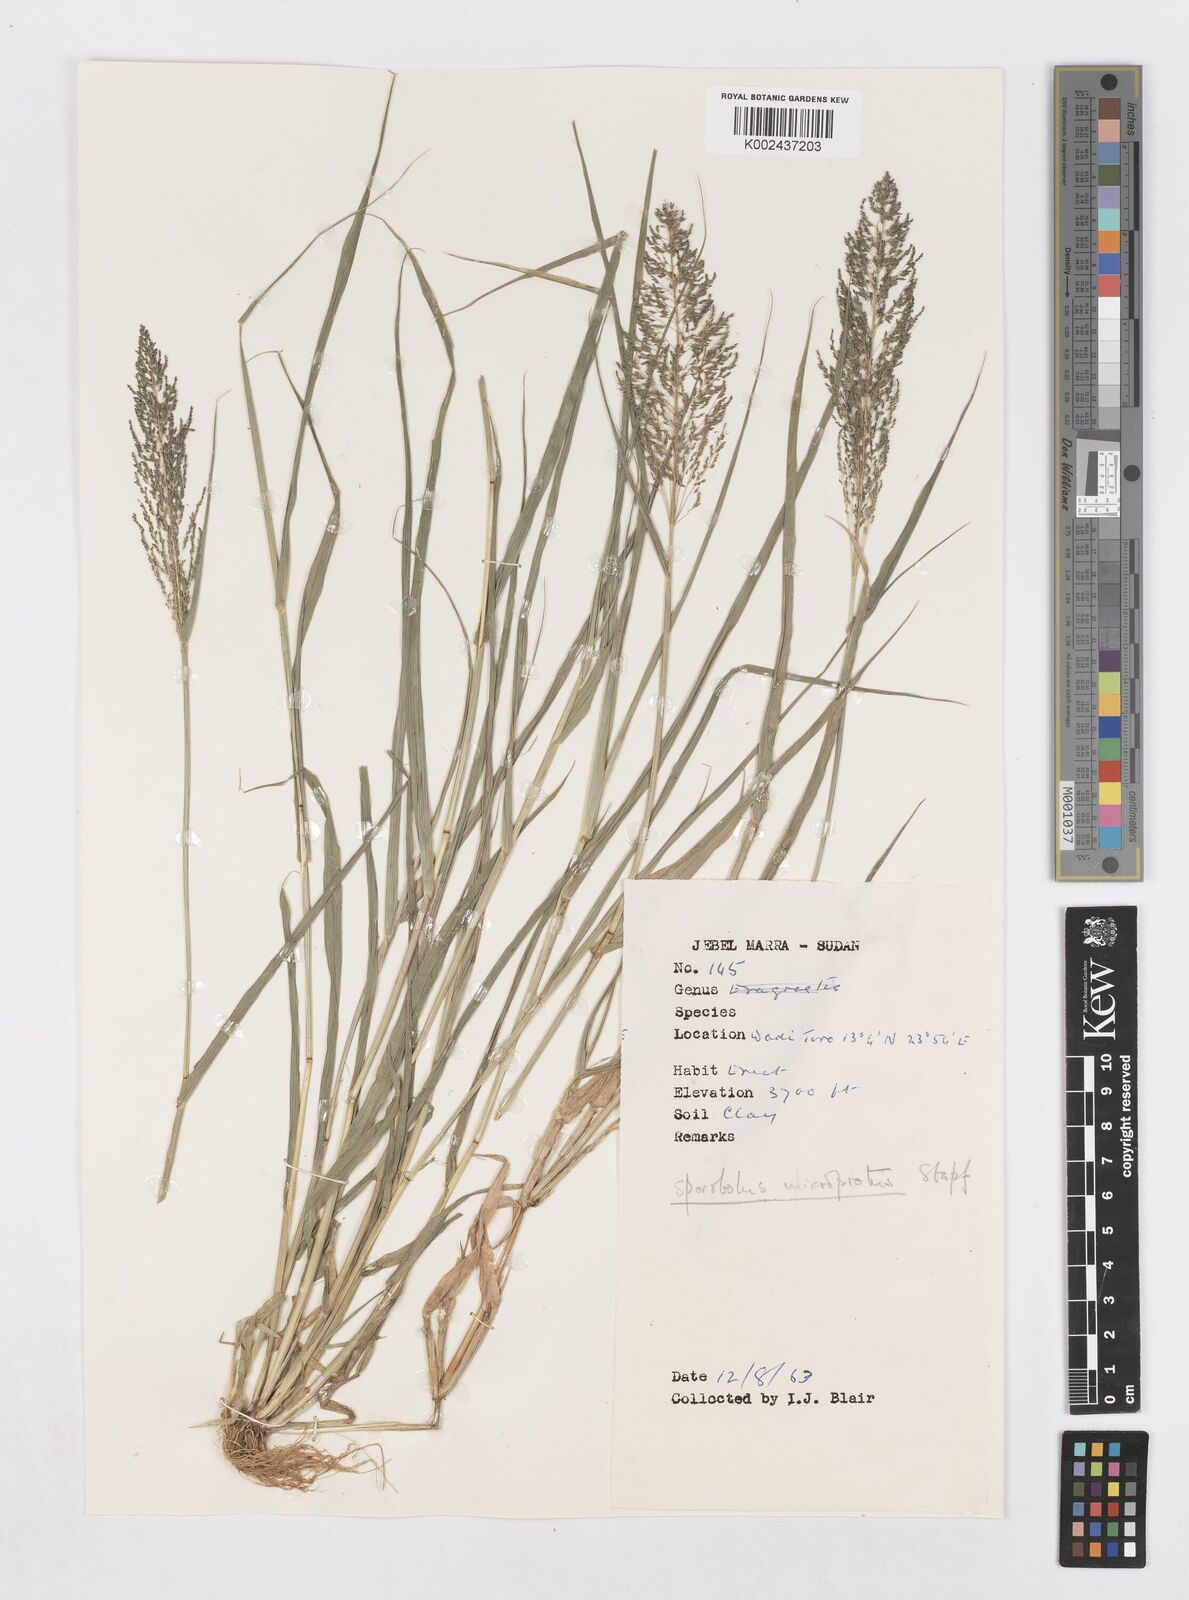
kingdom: Plantae
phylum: Tracheophyta
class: Liliopsida
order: Poales
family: Poaceae
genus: Sporobolus
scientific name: Sporobolus microprotus
